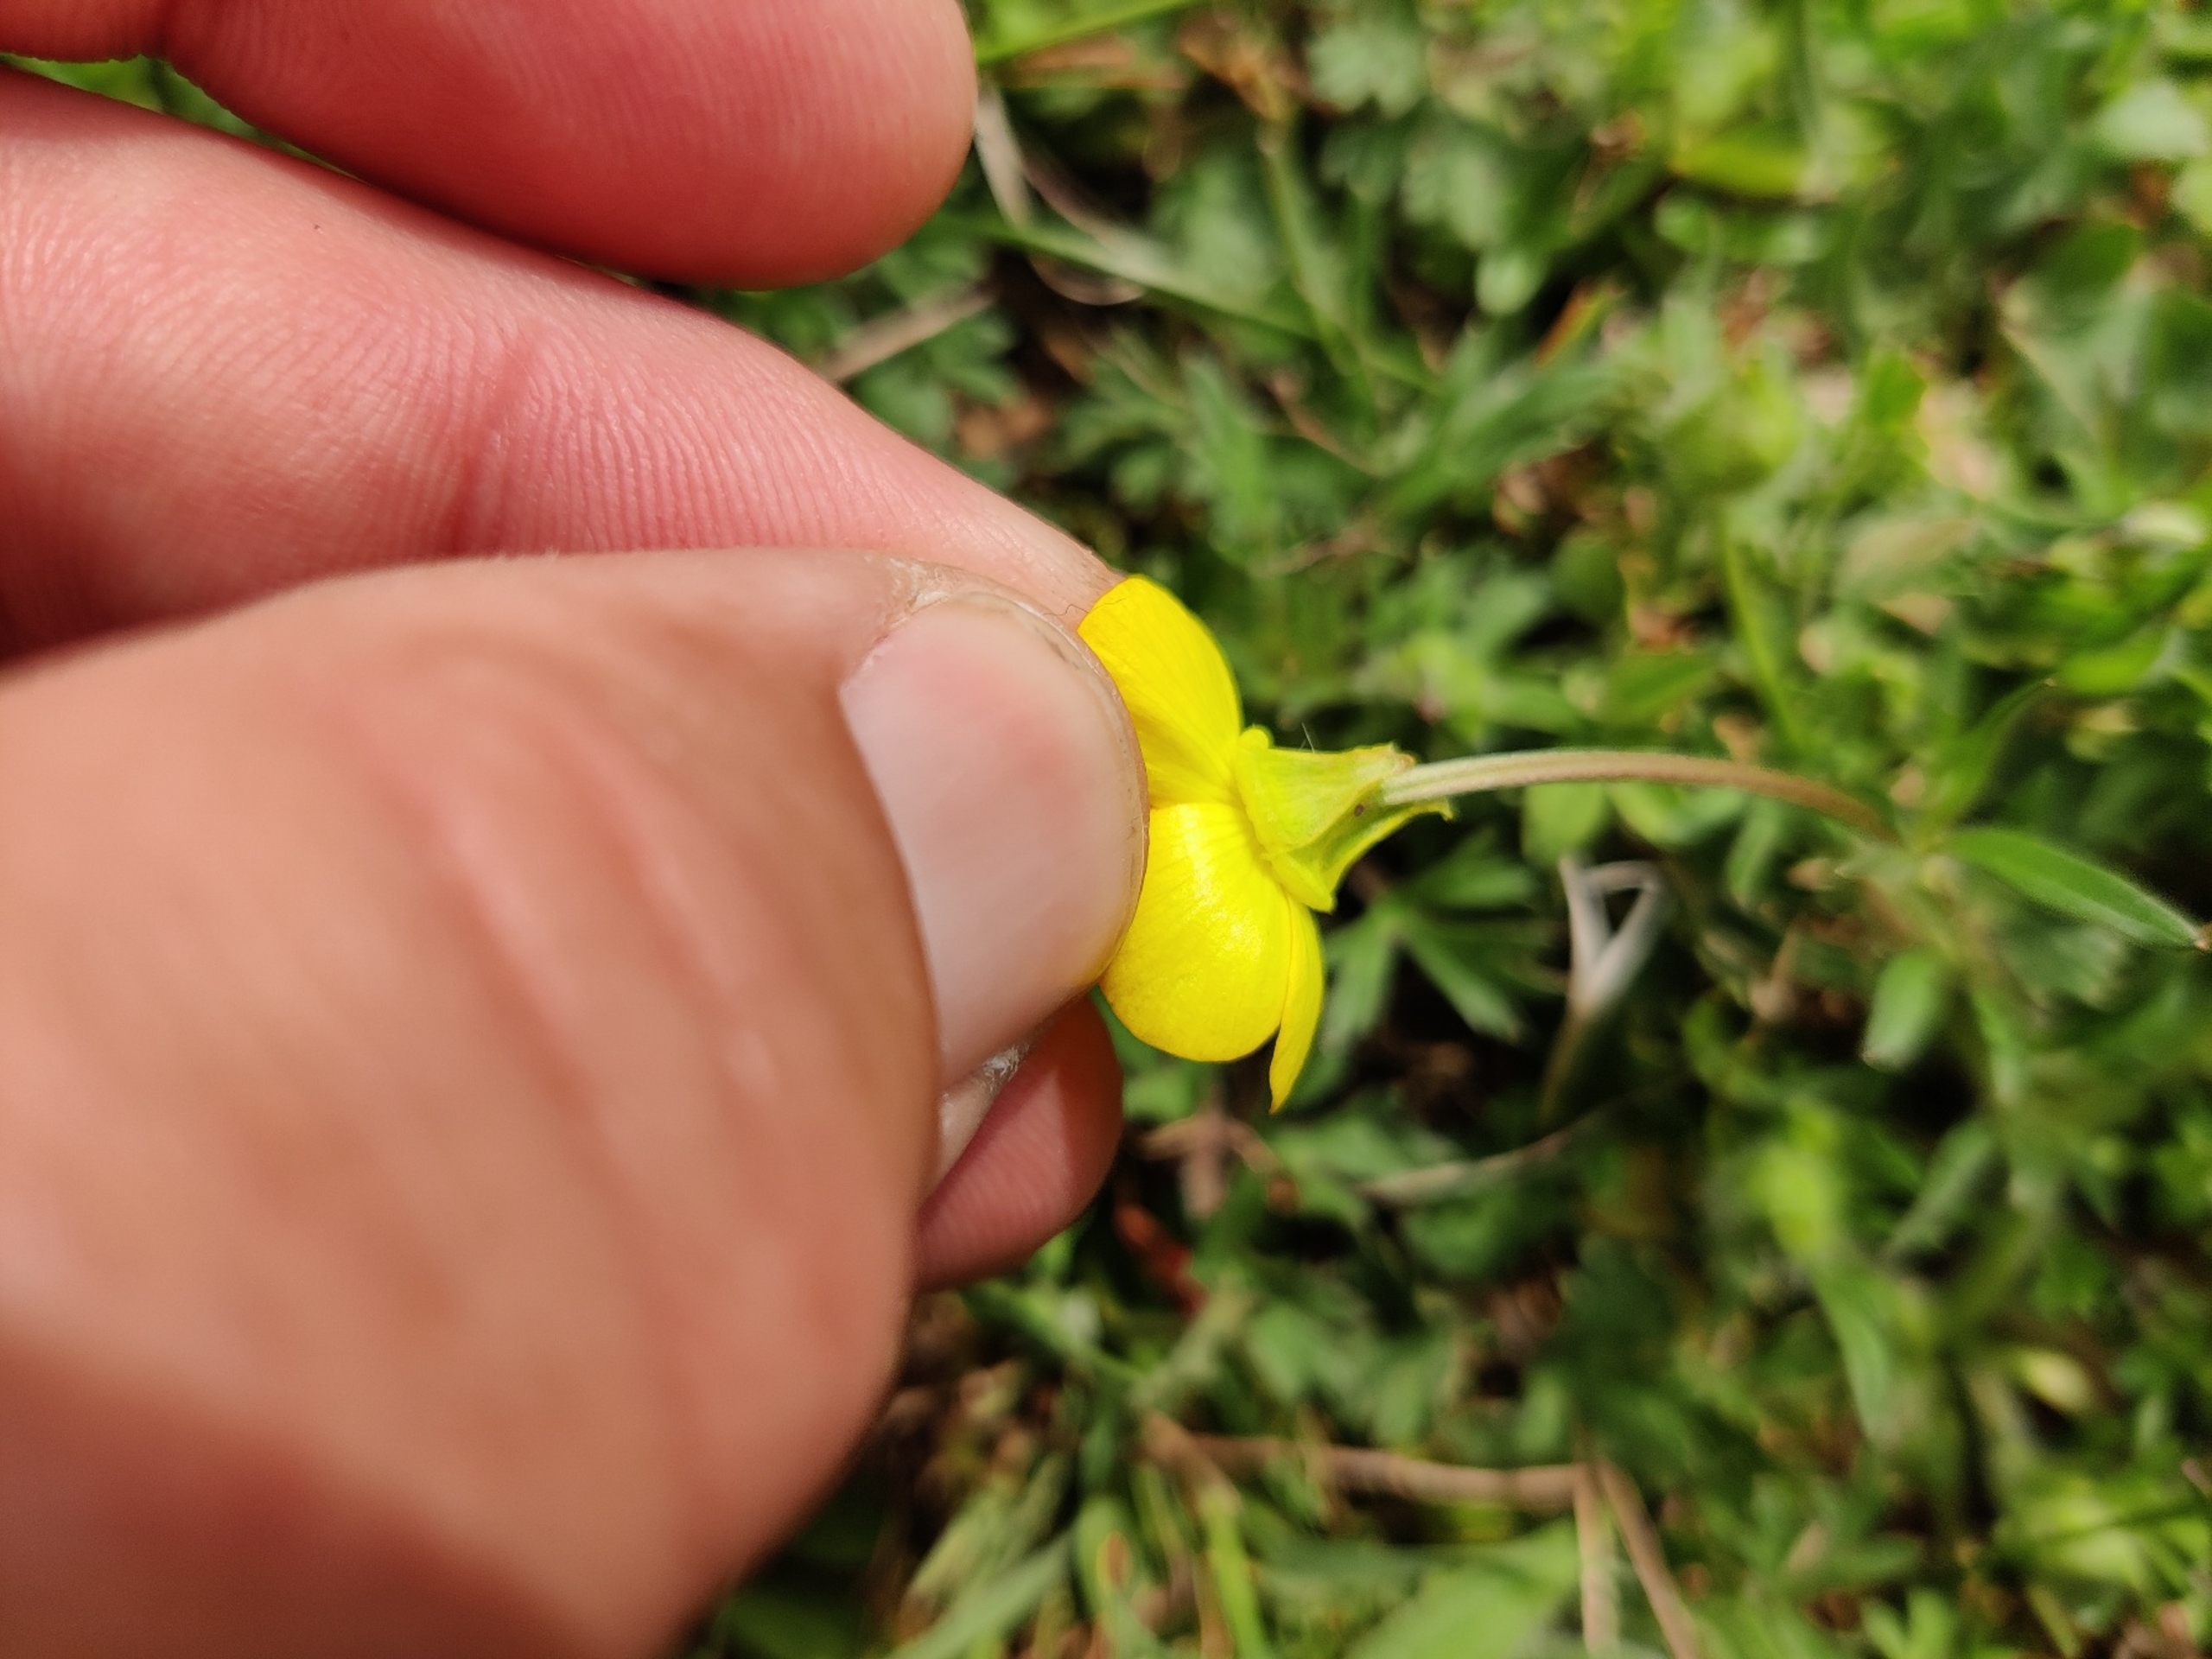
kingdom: Plantae
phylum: Tracheophyta
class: Magnoliopsida
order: Ranunculales
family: Ranunculaceae
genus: Ranunculus
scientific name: Ranunculus bulbosus
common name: Knold-ranunkel
